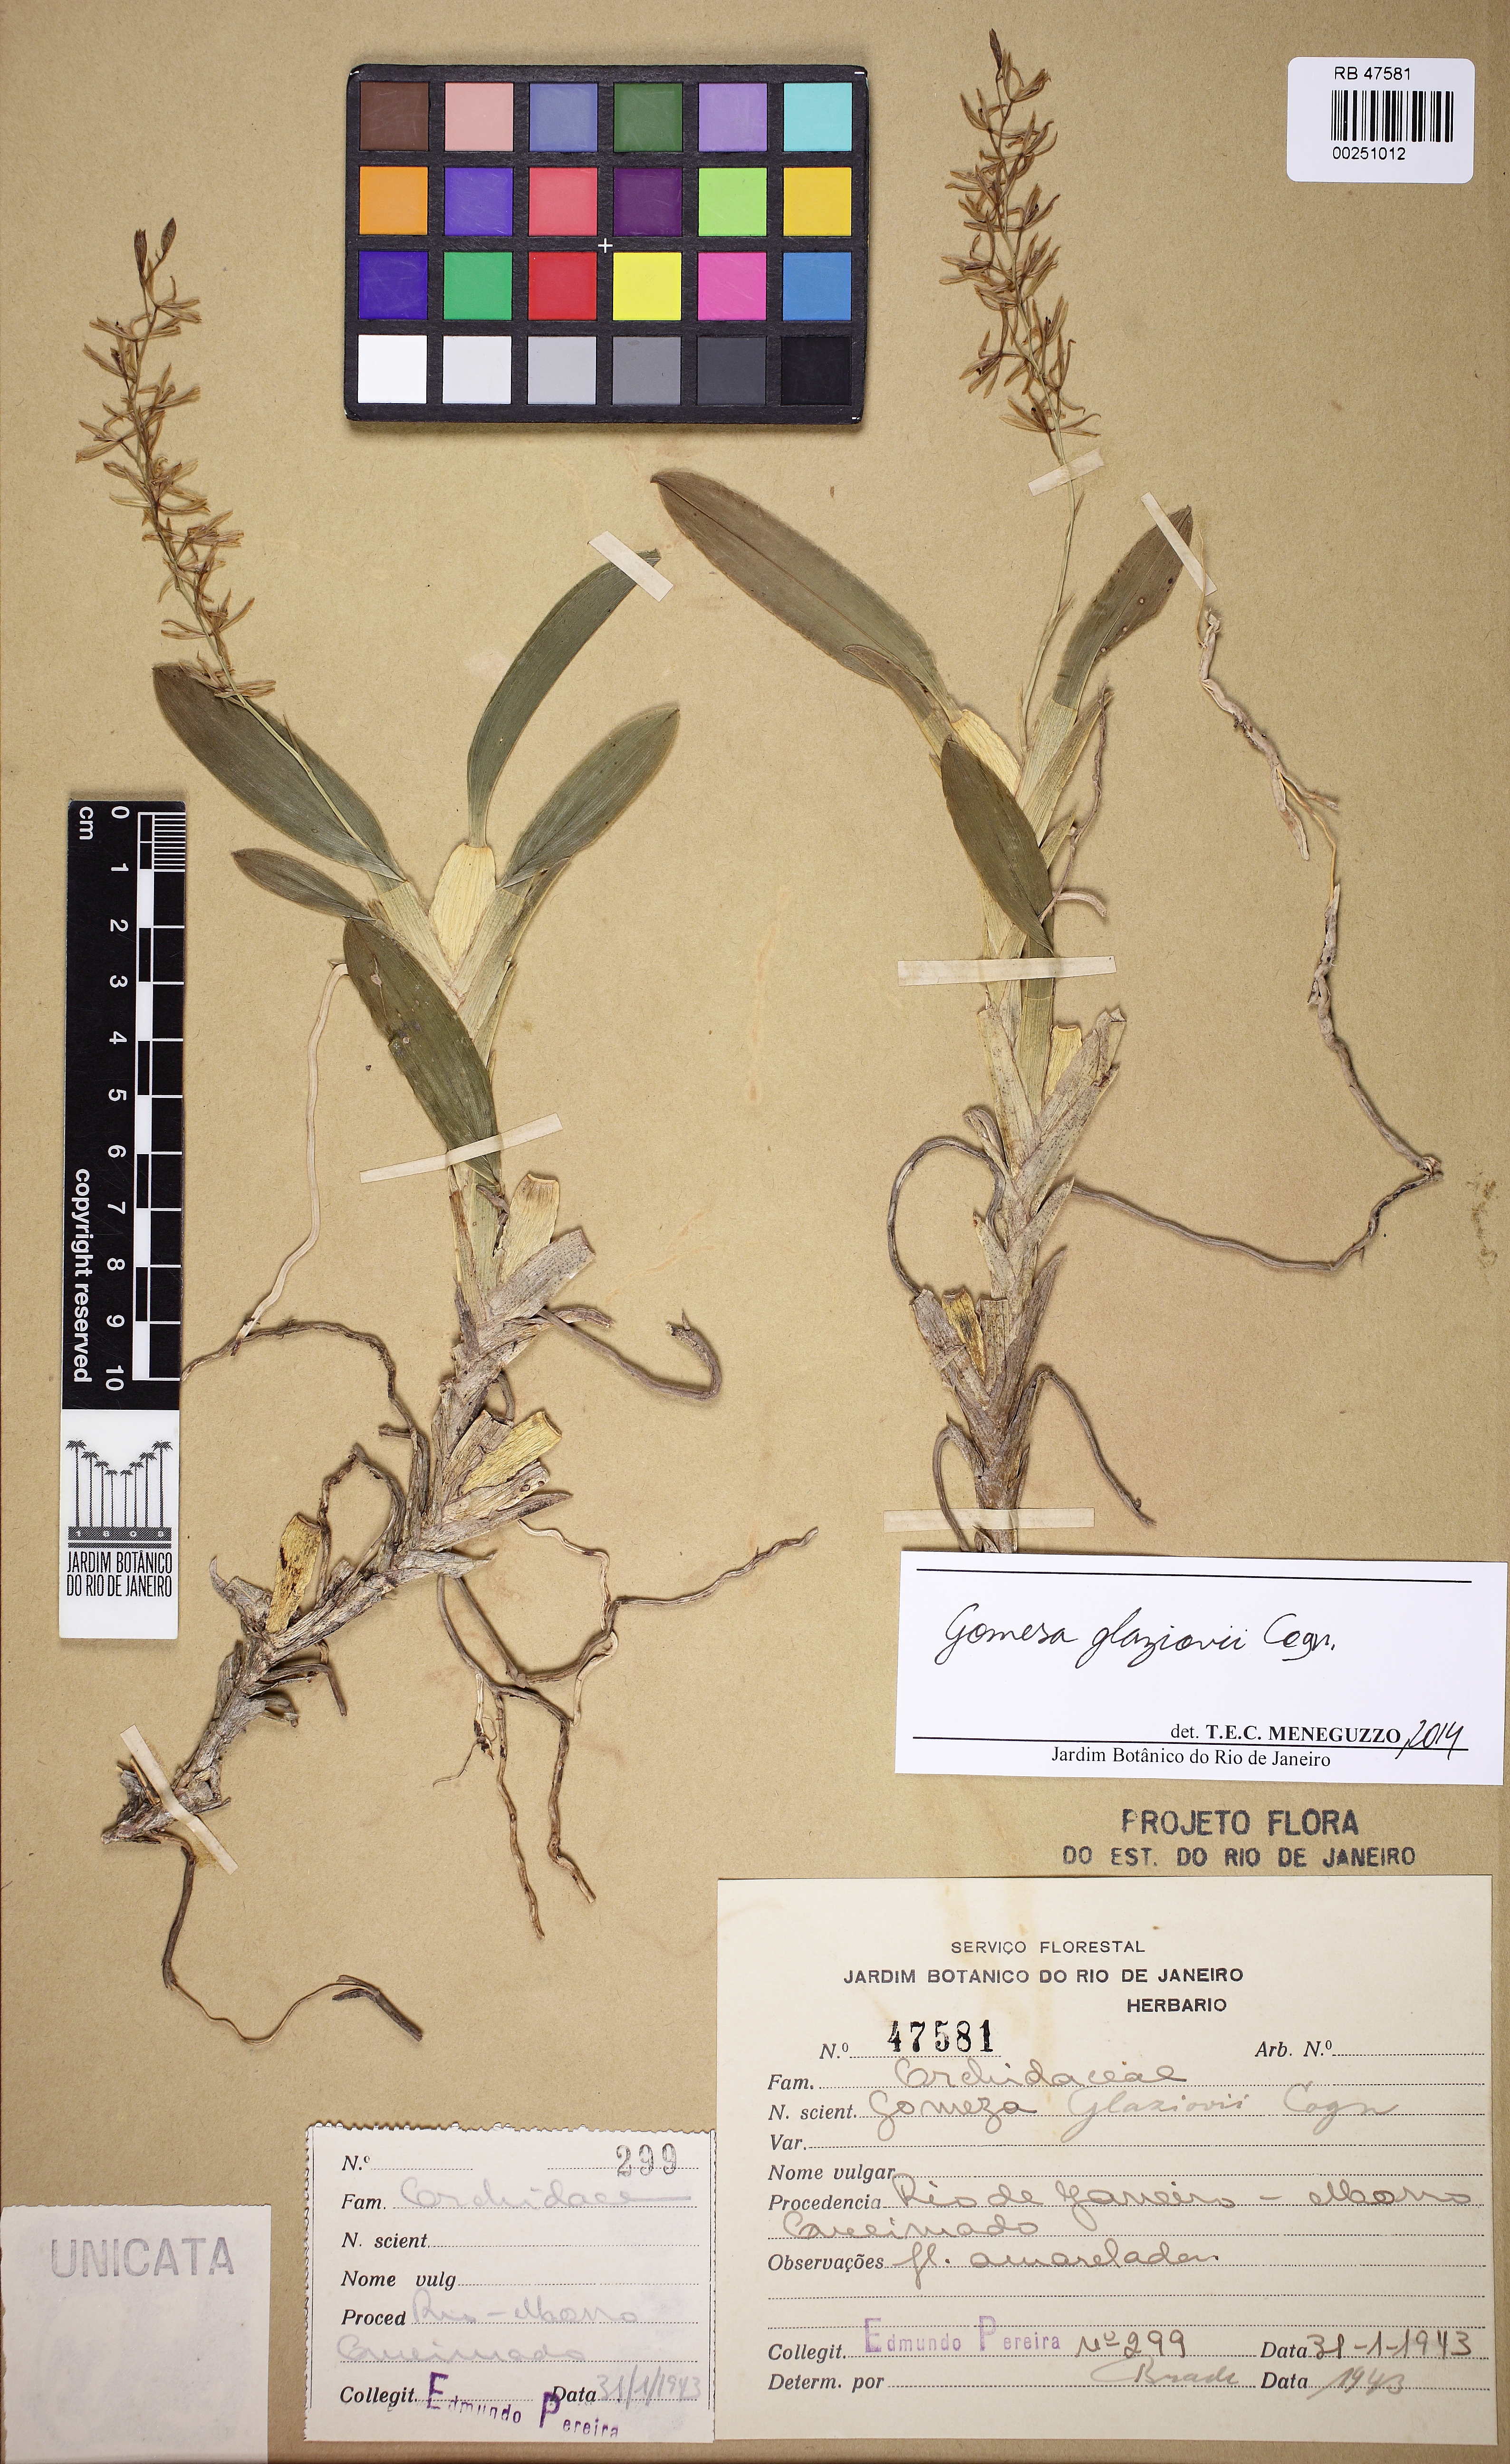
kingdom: Plantae
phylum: Tracheophyta
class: Liliopsida
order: Asparagales
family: Orchidaceae
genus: Gomesa
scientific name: Gomesa glaziovii
